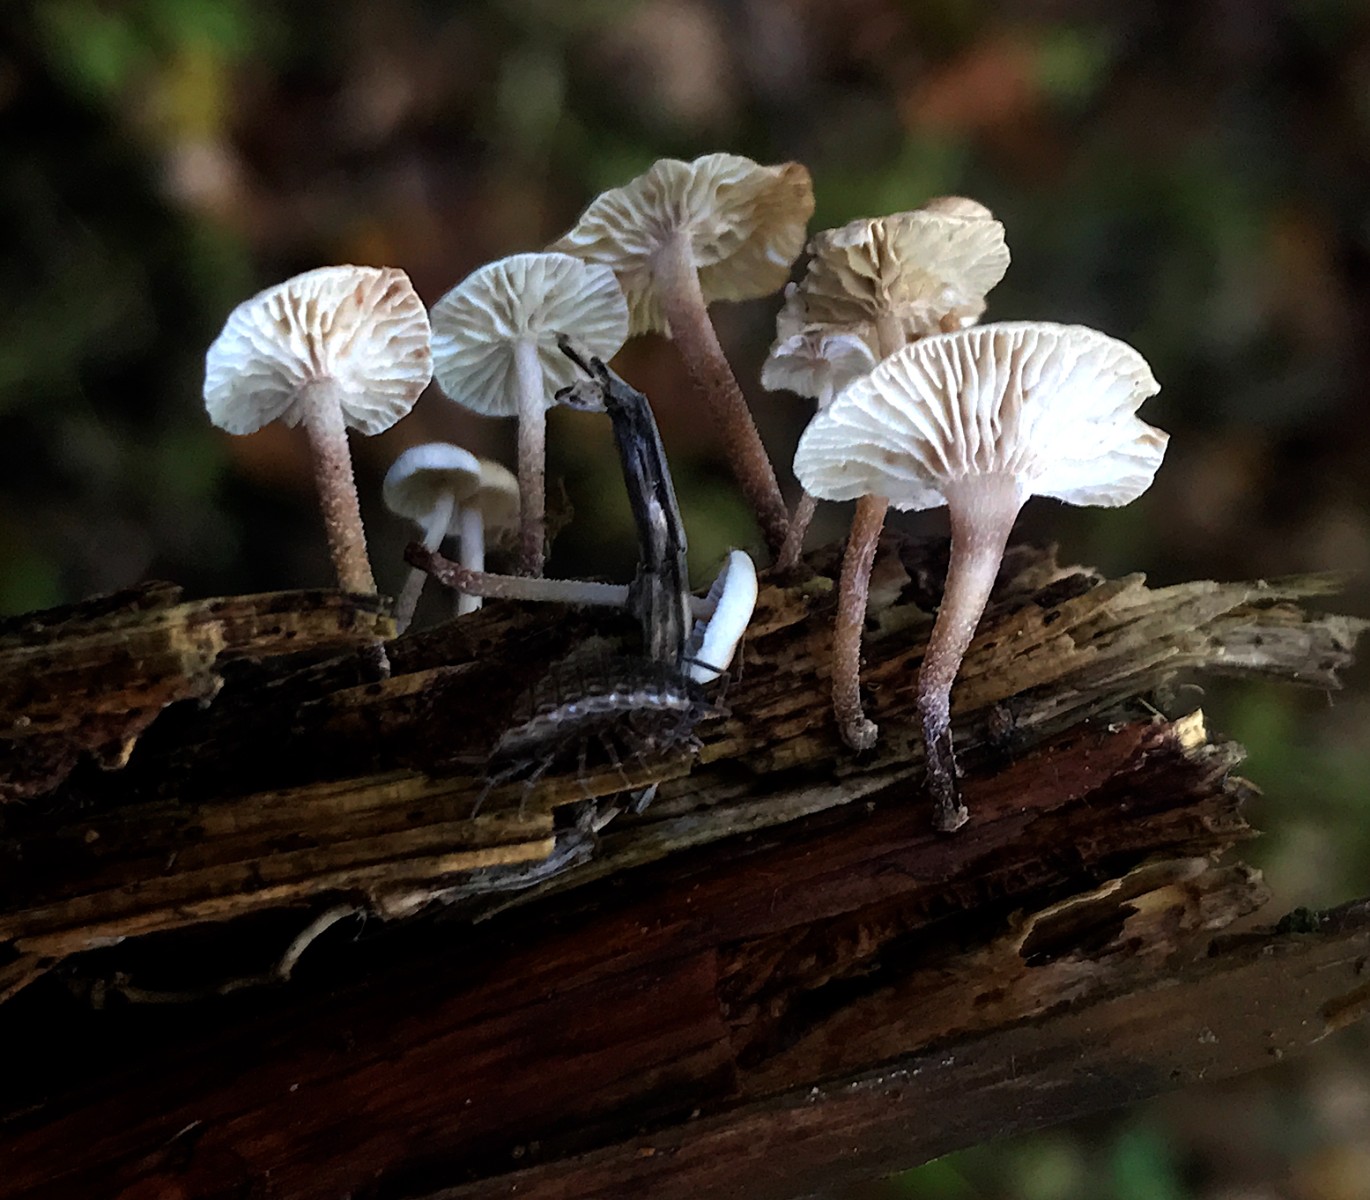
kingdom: Fungi
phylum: Basidiomycota
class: Agaricomycetes
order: Agaricales
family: Omphalotaceae
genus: Collybiopsis
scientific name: Collybiopsis ramealis
